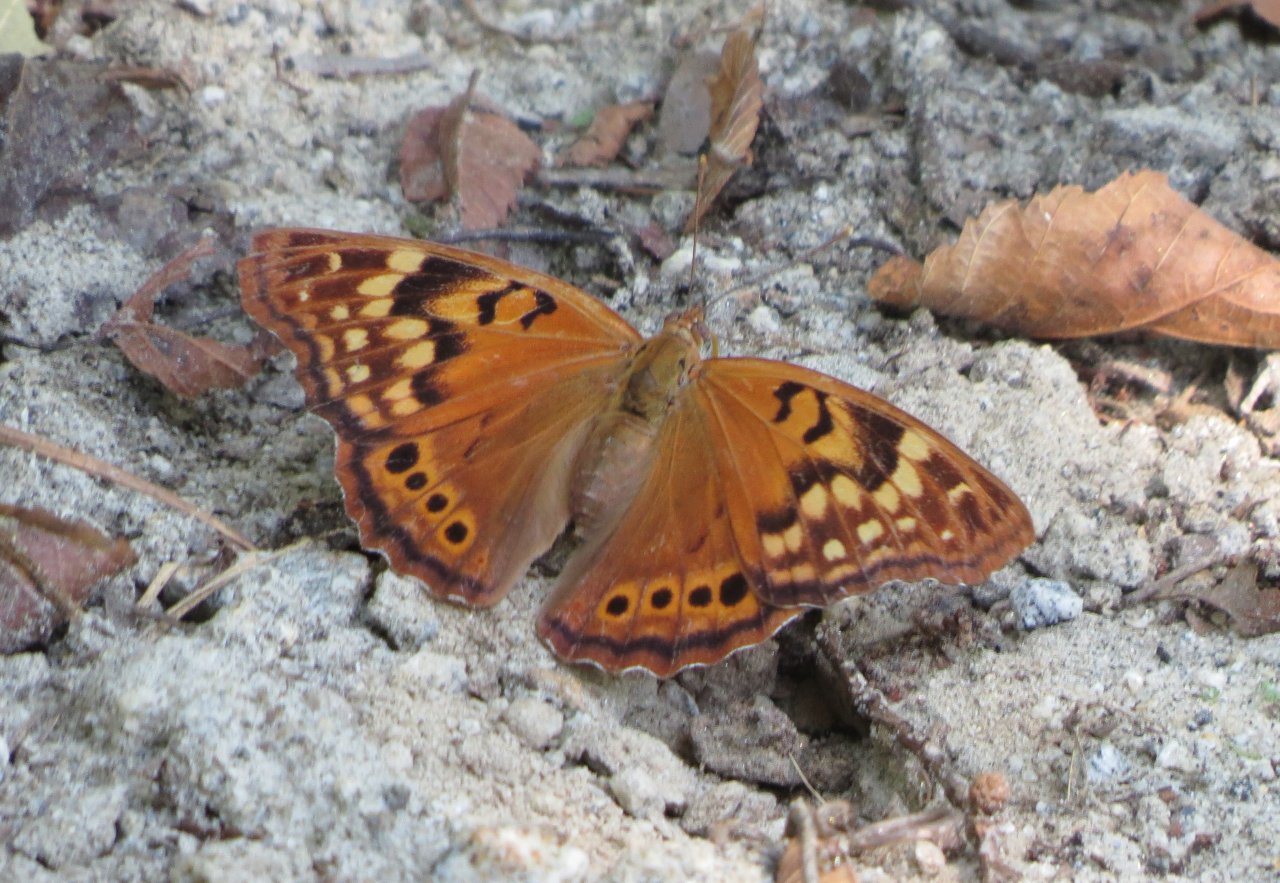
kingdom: Animalia
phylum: Arthropoda
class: Insecta
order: Lepidoptera
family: Nymphalidae
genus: Asterocampa
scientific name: Asterocampa clyton
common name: Tawny Emperor
